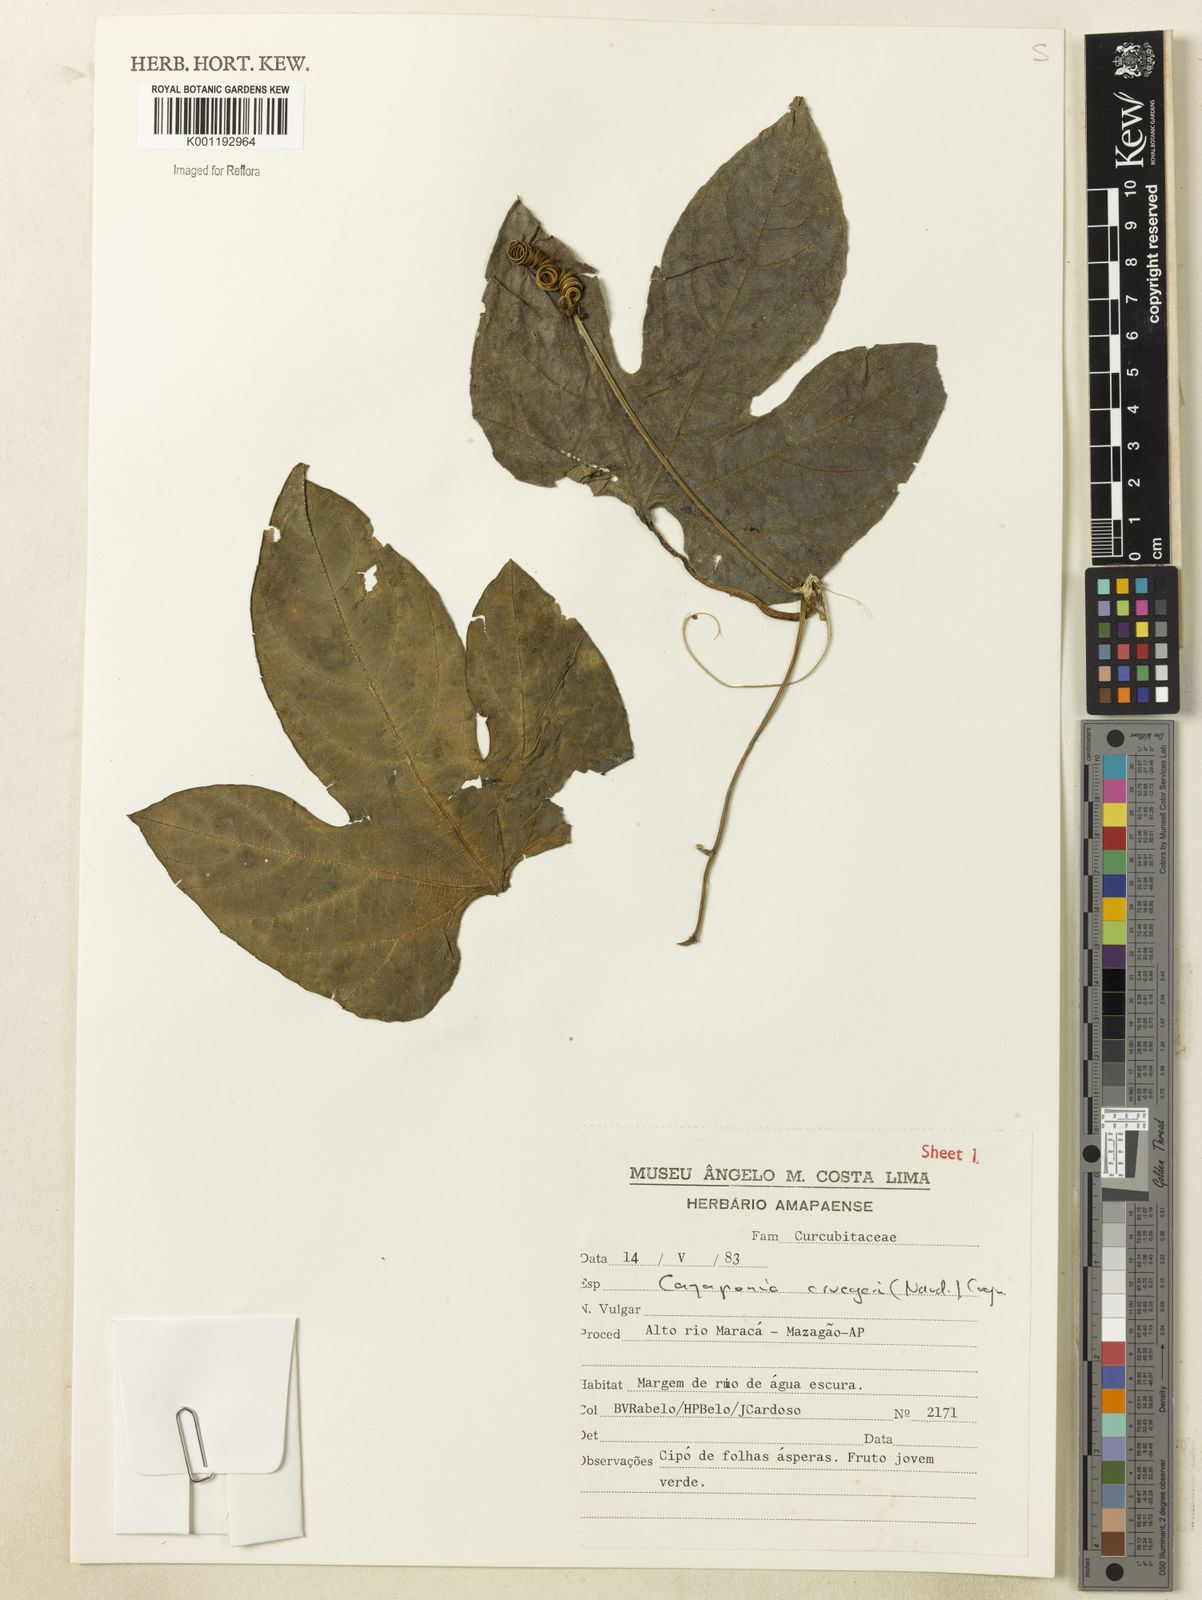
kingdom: Plantae
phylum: Tracheophyta
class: Magnoliopsida
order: Cucurbitales
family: Cucurbitaceae
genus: Cayaponia
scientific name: Cayaponia cruegeri
